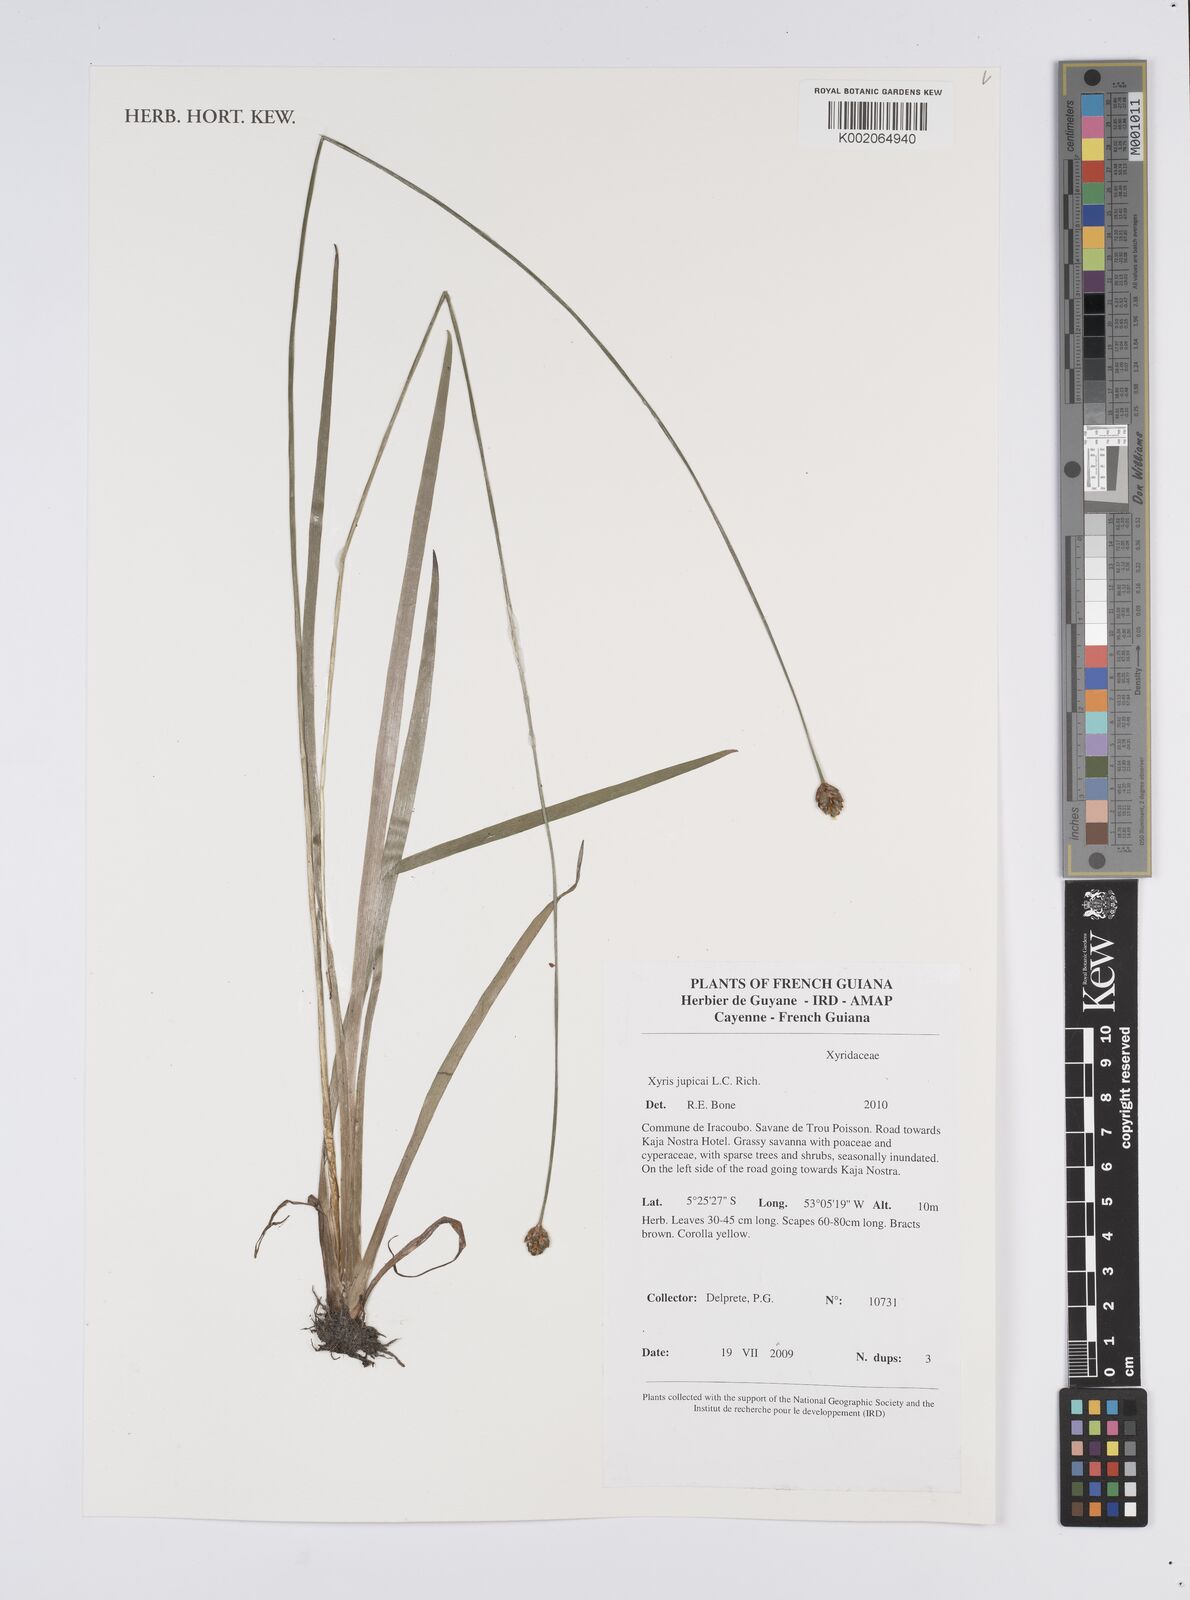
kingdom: Plantae
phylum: Tracheophyta
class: Liliopsida
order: Poales
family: Xyridaceae
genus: Xyris
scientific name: Xyris jupicai
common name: Richard's yelloweyed grass
